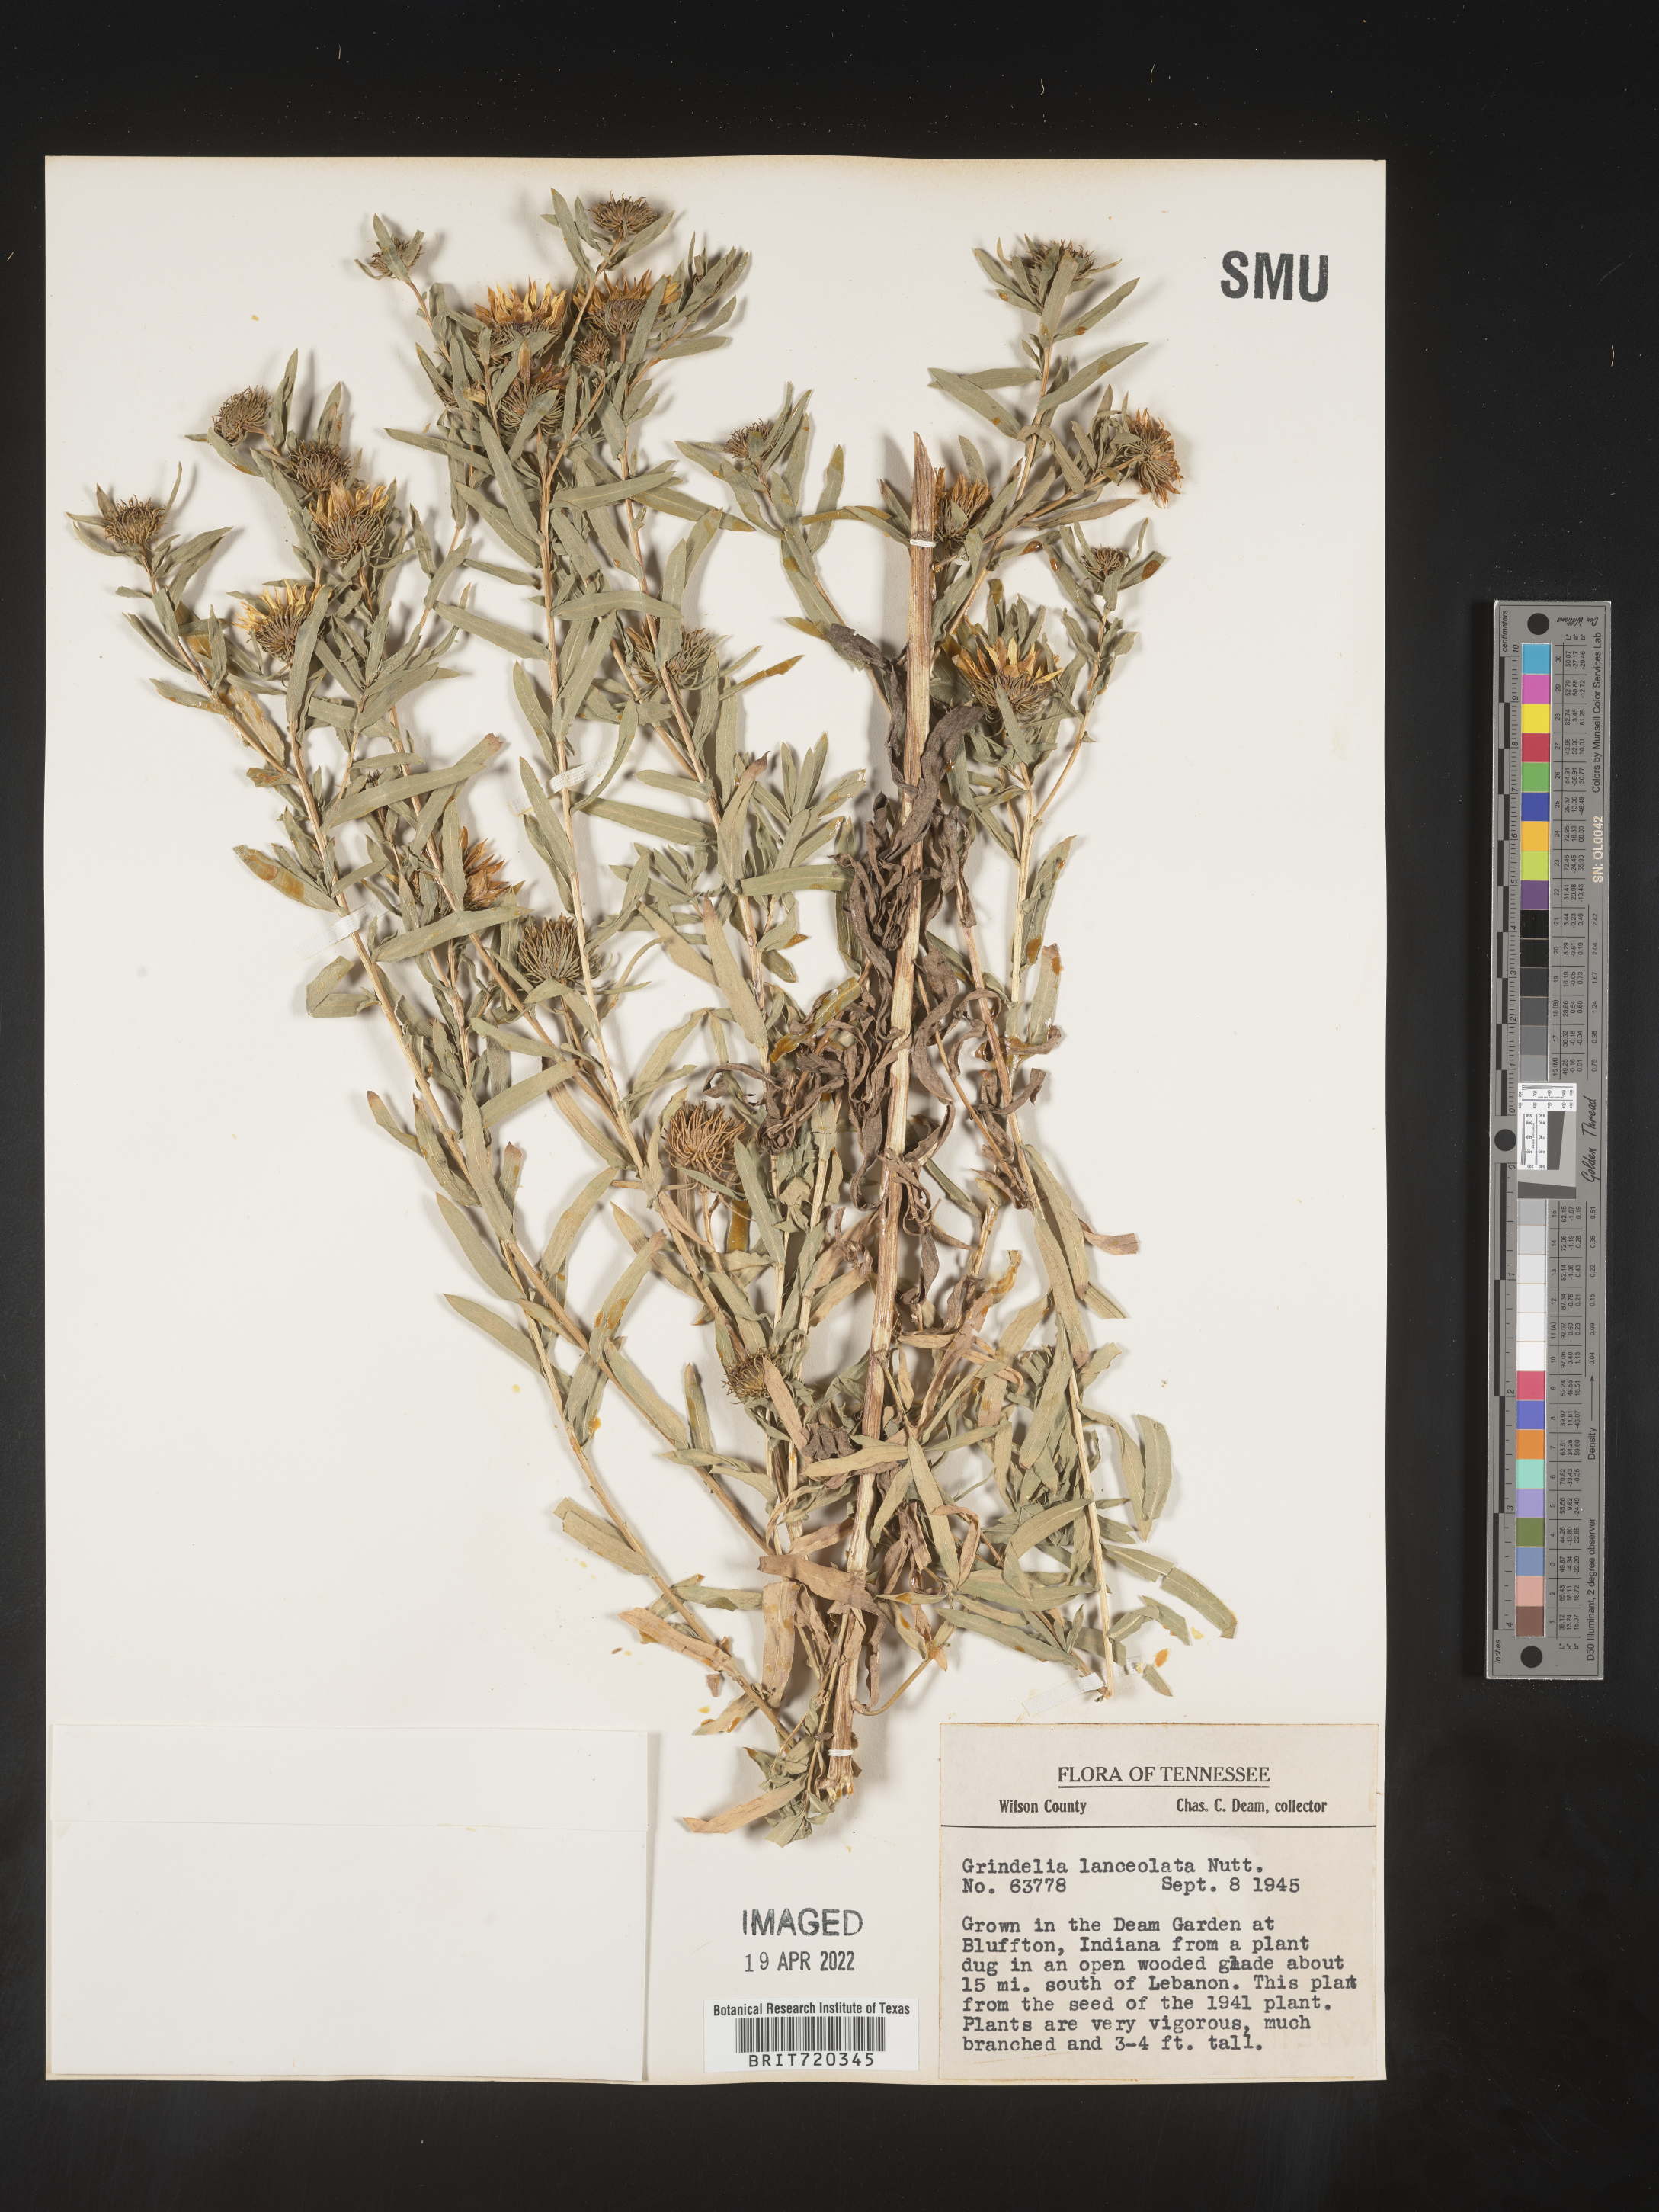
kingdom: Plantae
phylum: Tracheophyta
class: Magnoliopsida
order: Asterales
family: Asteraceae
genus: Grindelia
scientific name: Grindelia
